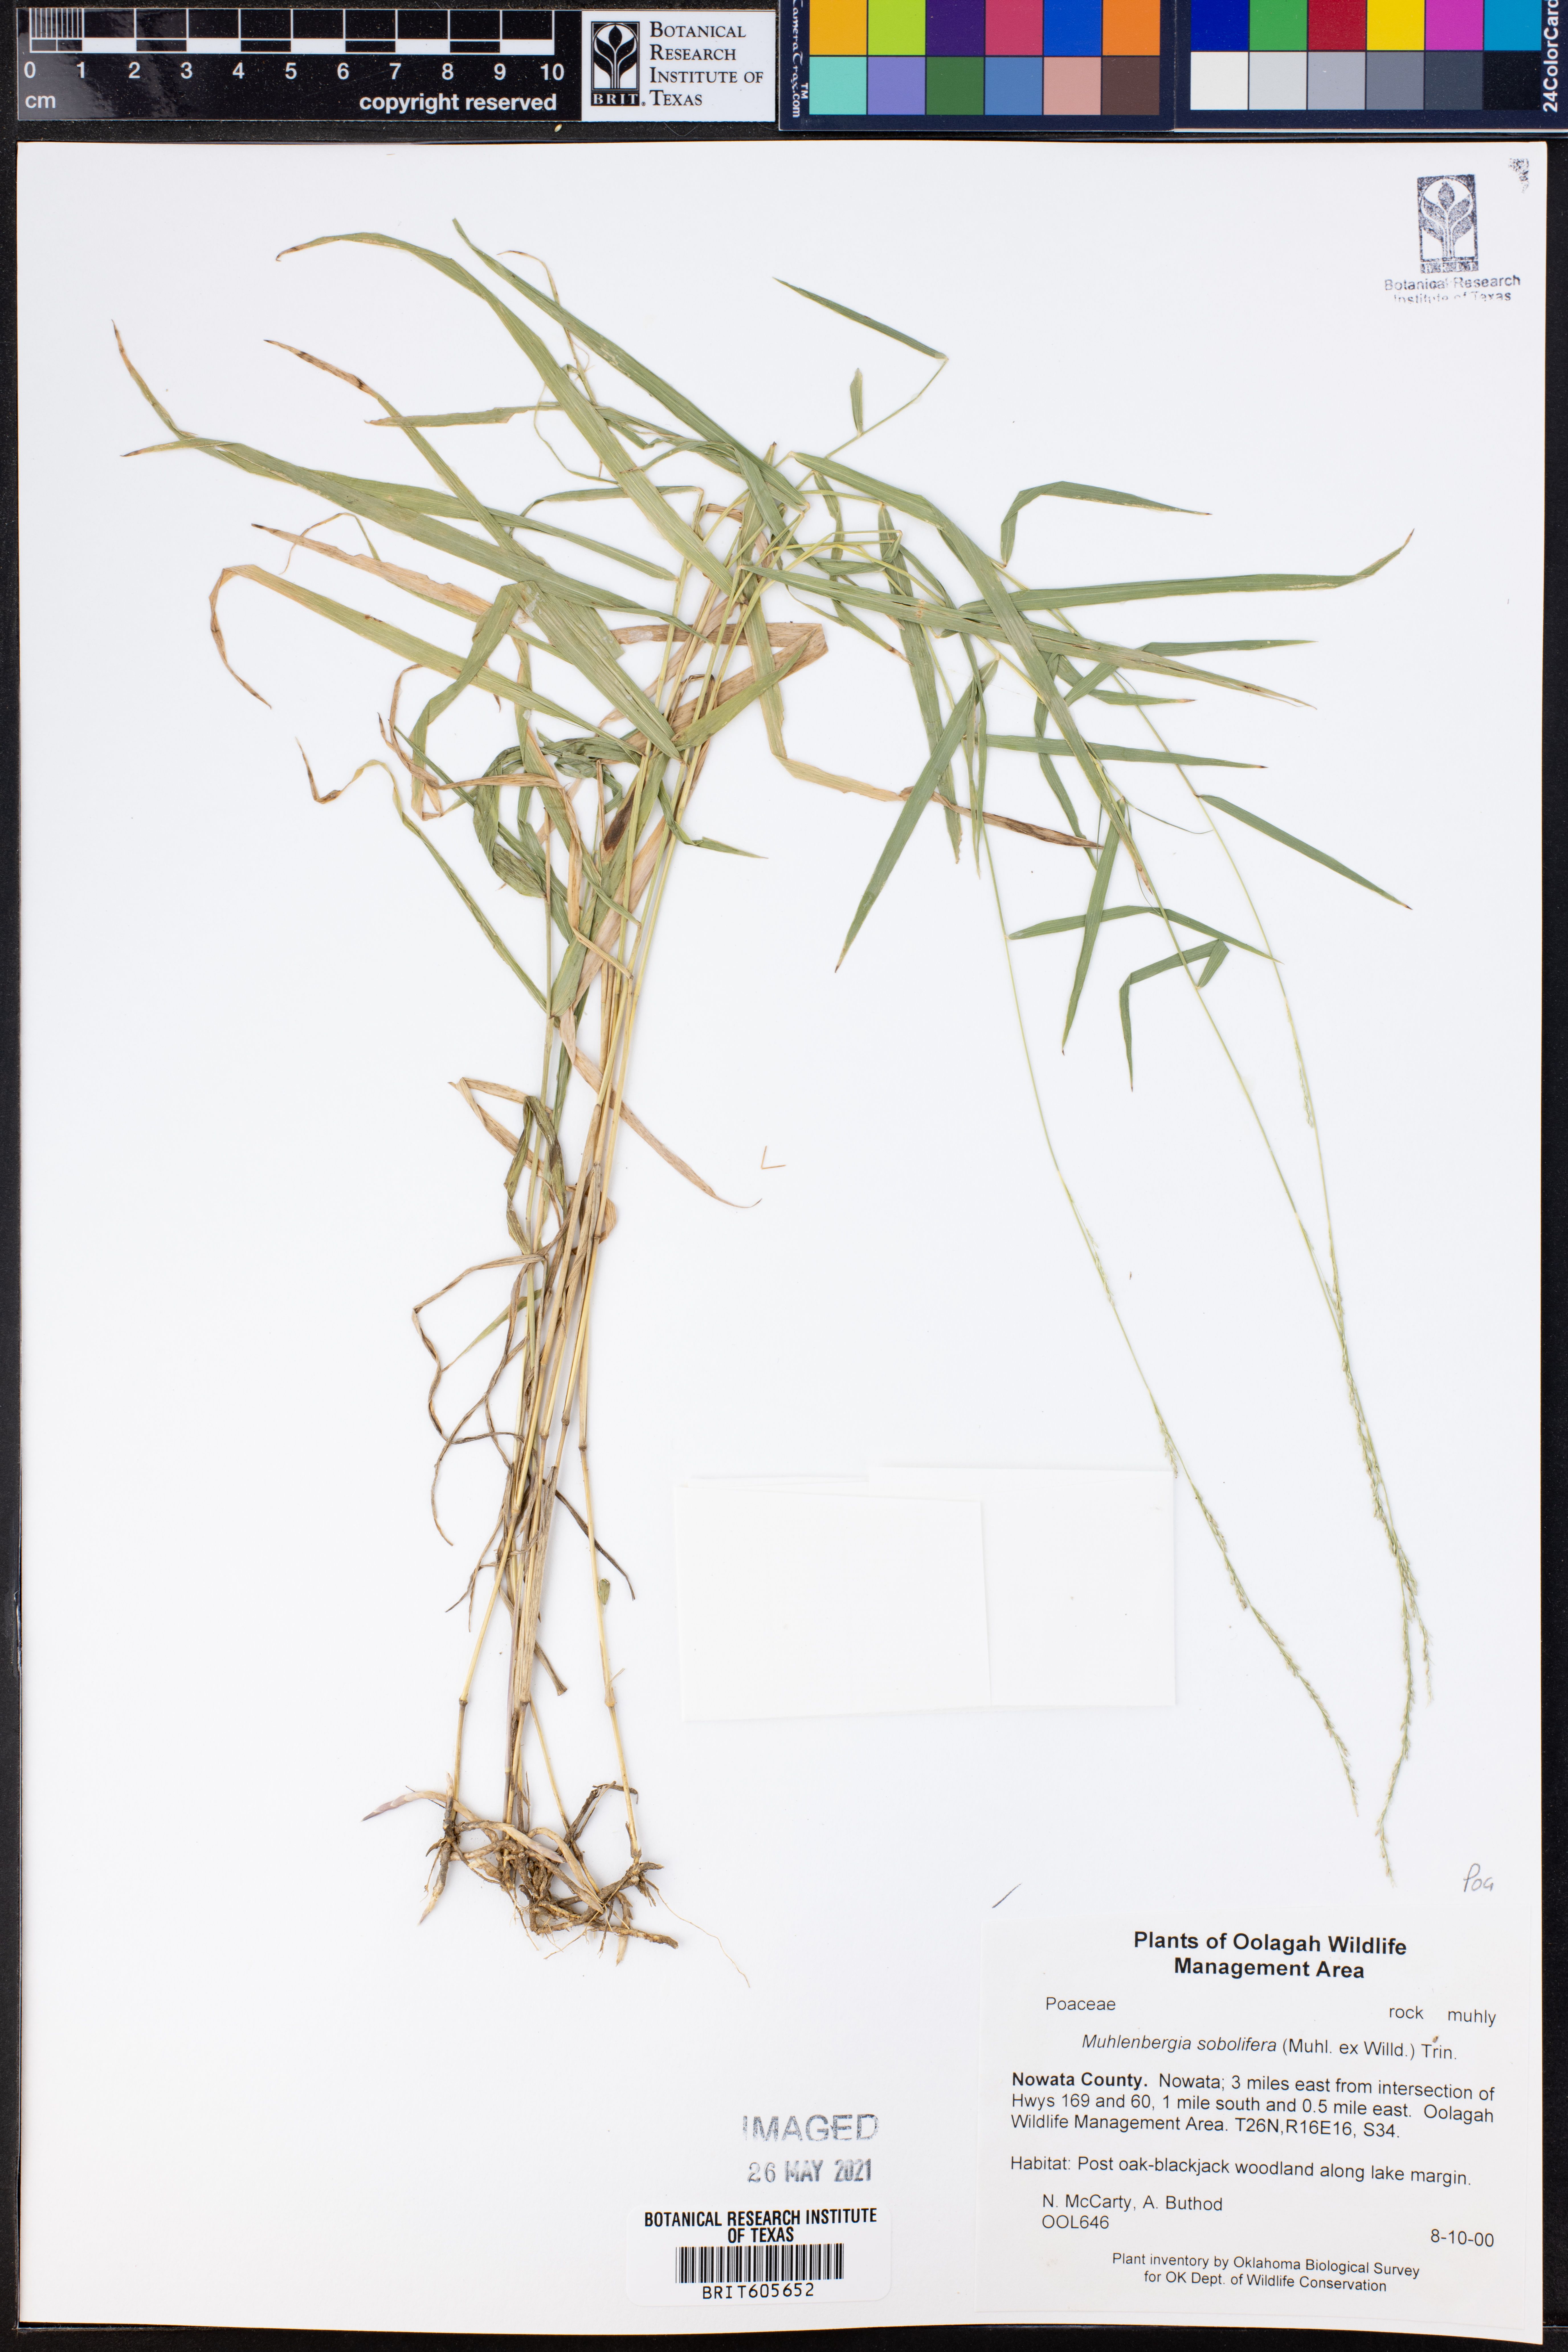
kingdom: Plantae
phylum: Tracheophyta
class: Liliopsida
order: Poales
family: Poaceae
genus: Muhlenbergia
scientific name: Muhlenbergia sobolifera
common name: Creeping muhly
